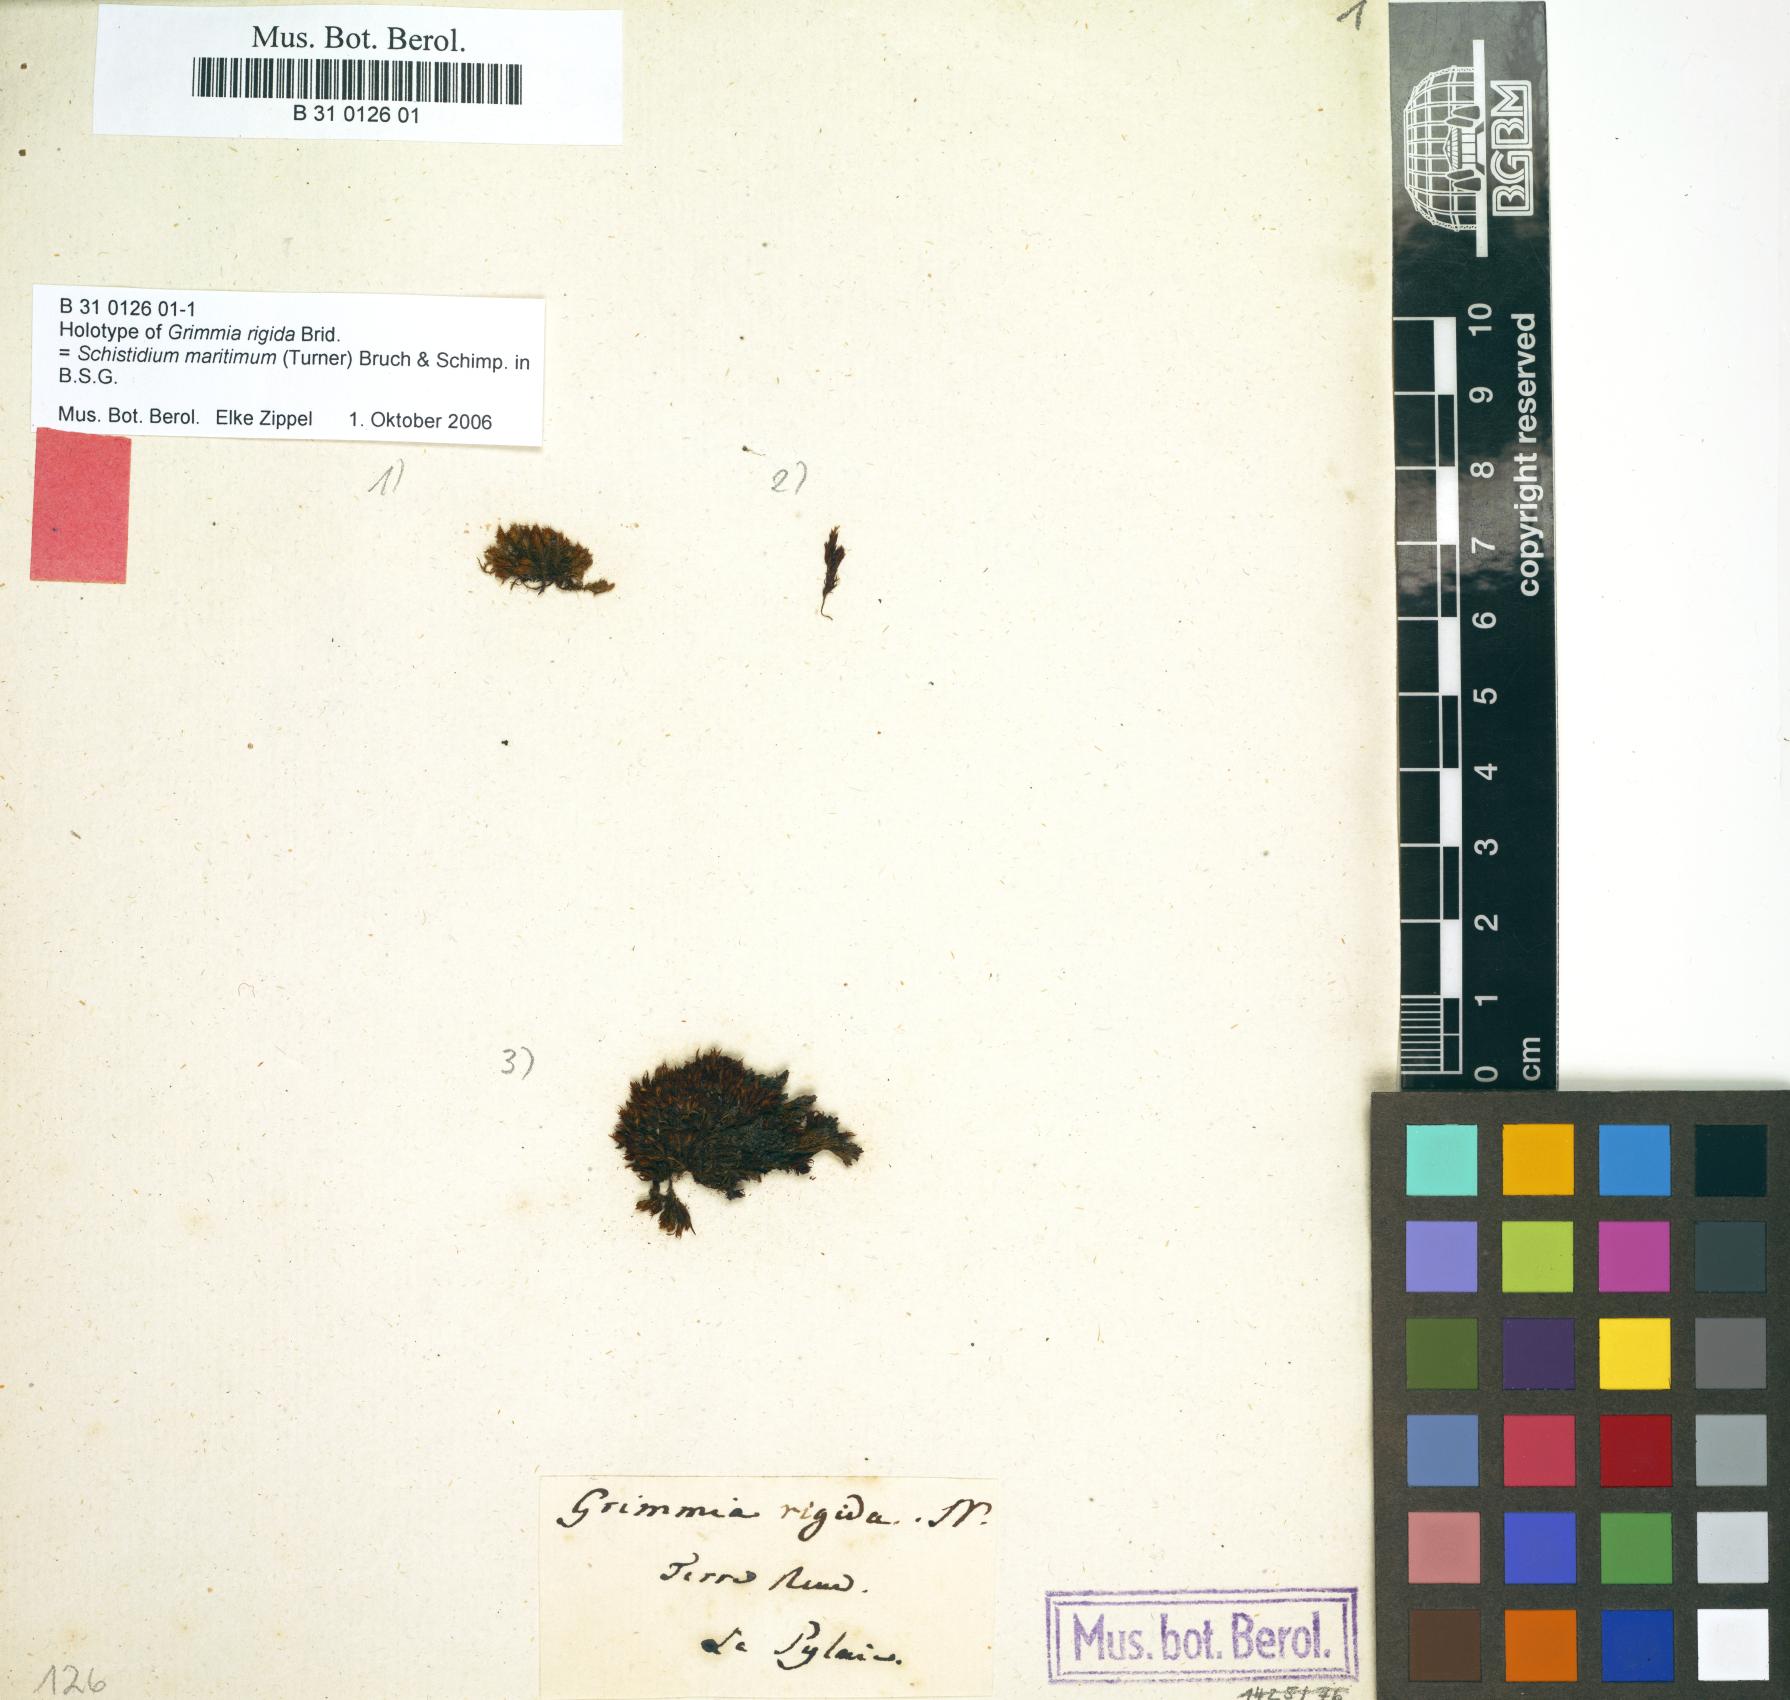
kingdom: Plantae
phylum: Bryophyta
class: Bryopsida
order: Grimmiales
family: Grimmiaceae
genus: Schistidium
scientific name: Schistidium maritimum
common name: Seaside bloom moss
